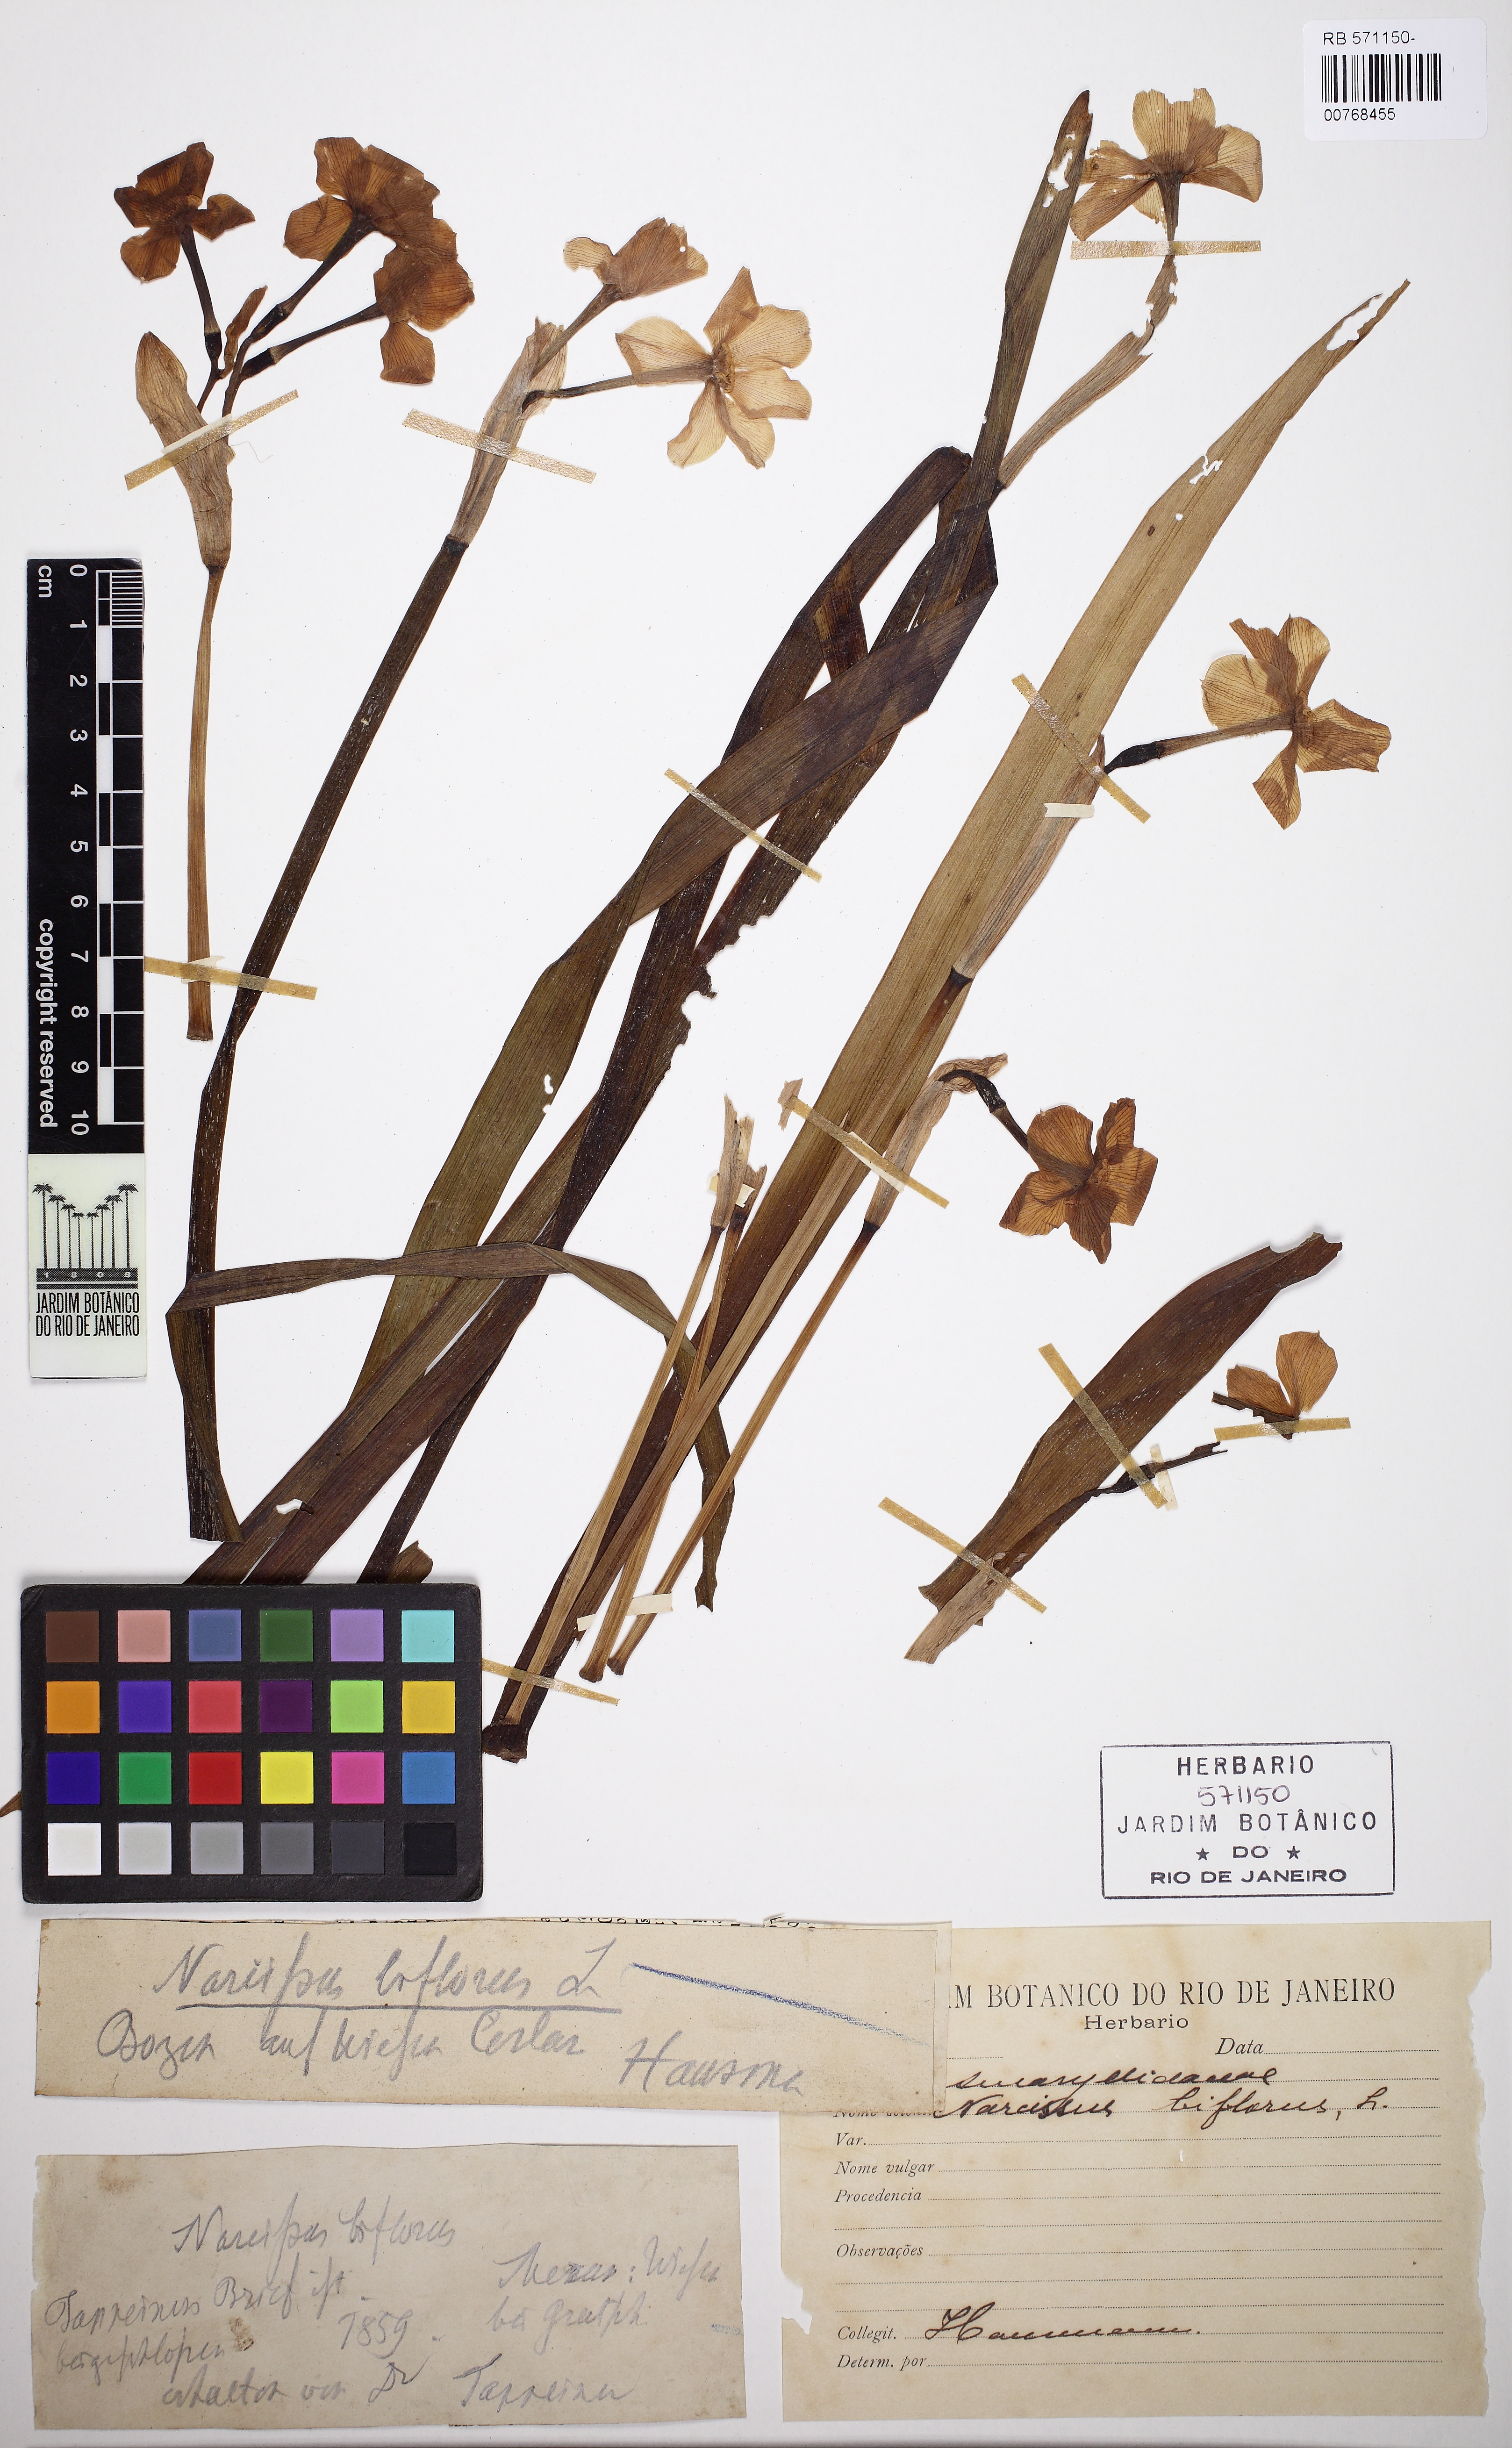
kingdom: Plantae
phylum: Tracheophyta
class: Liliopsida
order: Asparagales
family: Amaryllidaceae
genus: Narcissus
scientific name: Narcissus medioluteus
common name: Primrose-peerless
